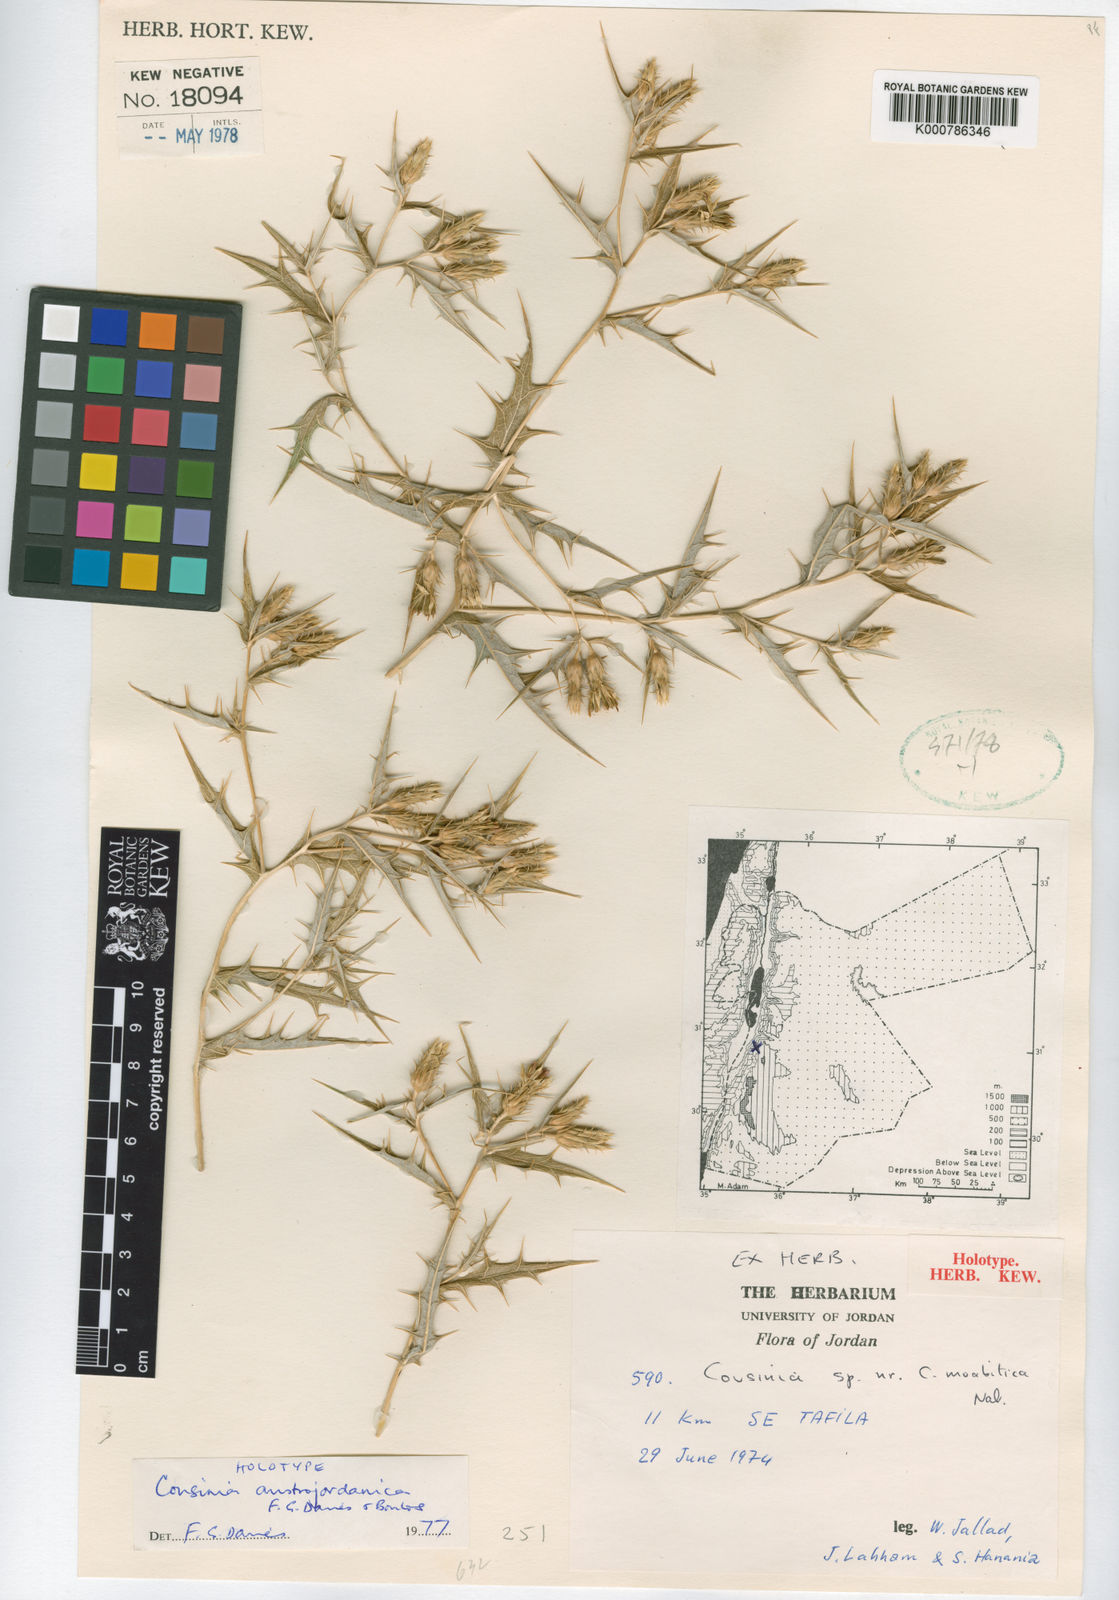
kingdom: Plantae
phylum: Tracheophyta
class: Magnoliopsida
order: Asterales
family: Asteraceae
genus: Cousinia
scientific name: Cousinia austrojordanica
